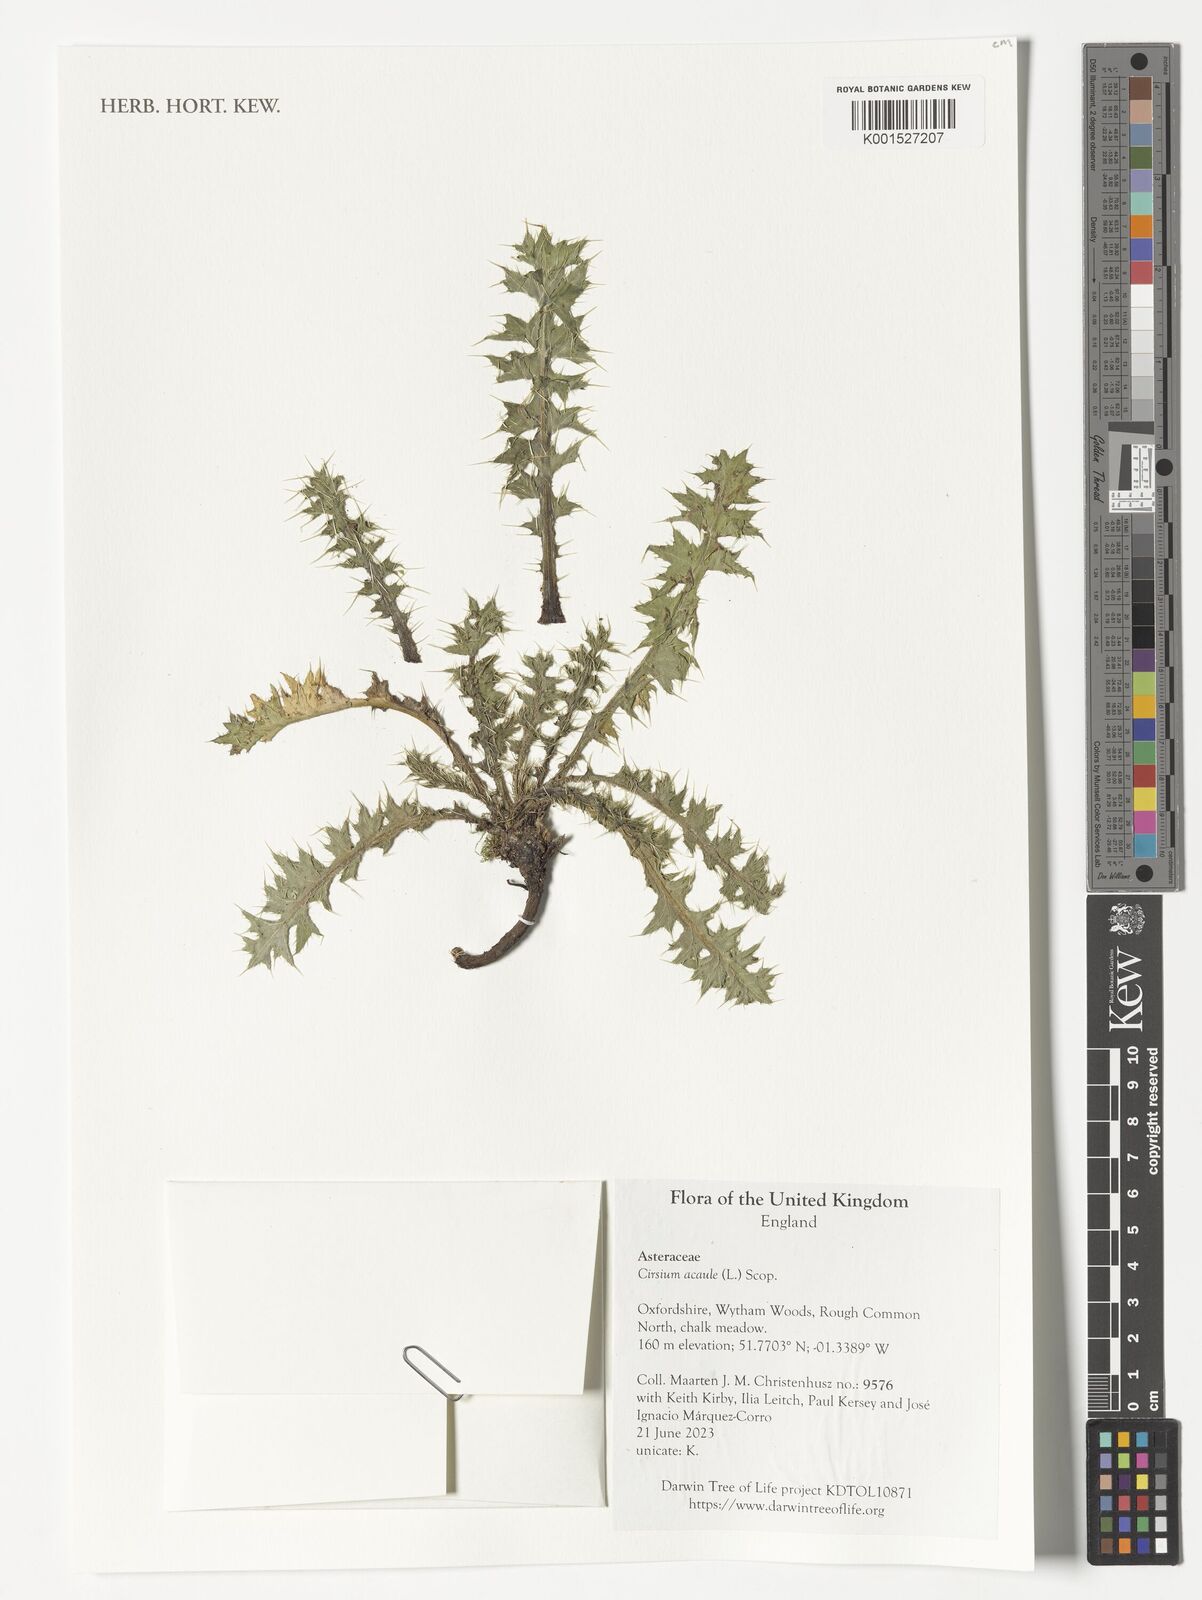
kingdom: Plantae
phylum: Tracheophyta
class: Magnoliopsida
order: Asterales
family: Asteraceae
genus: Cirsium
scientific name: Cirsium acaule
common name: Dwarf thistle
